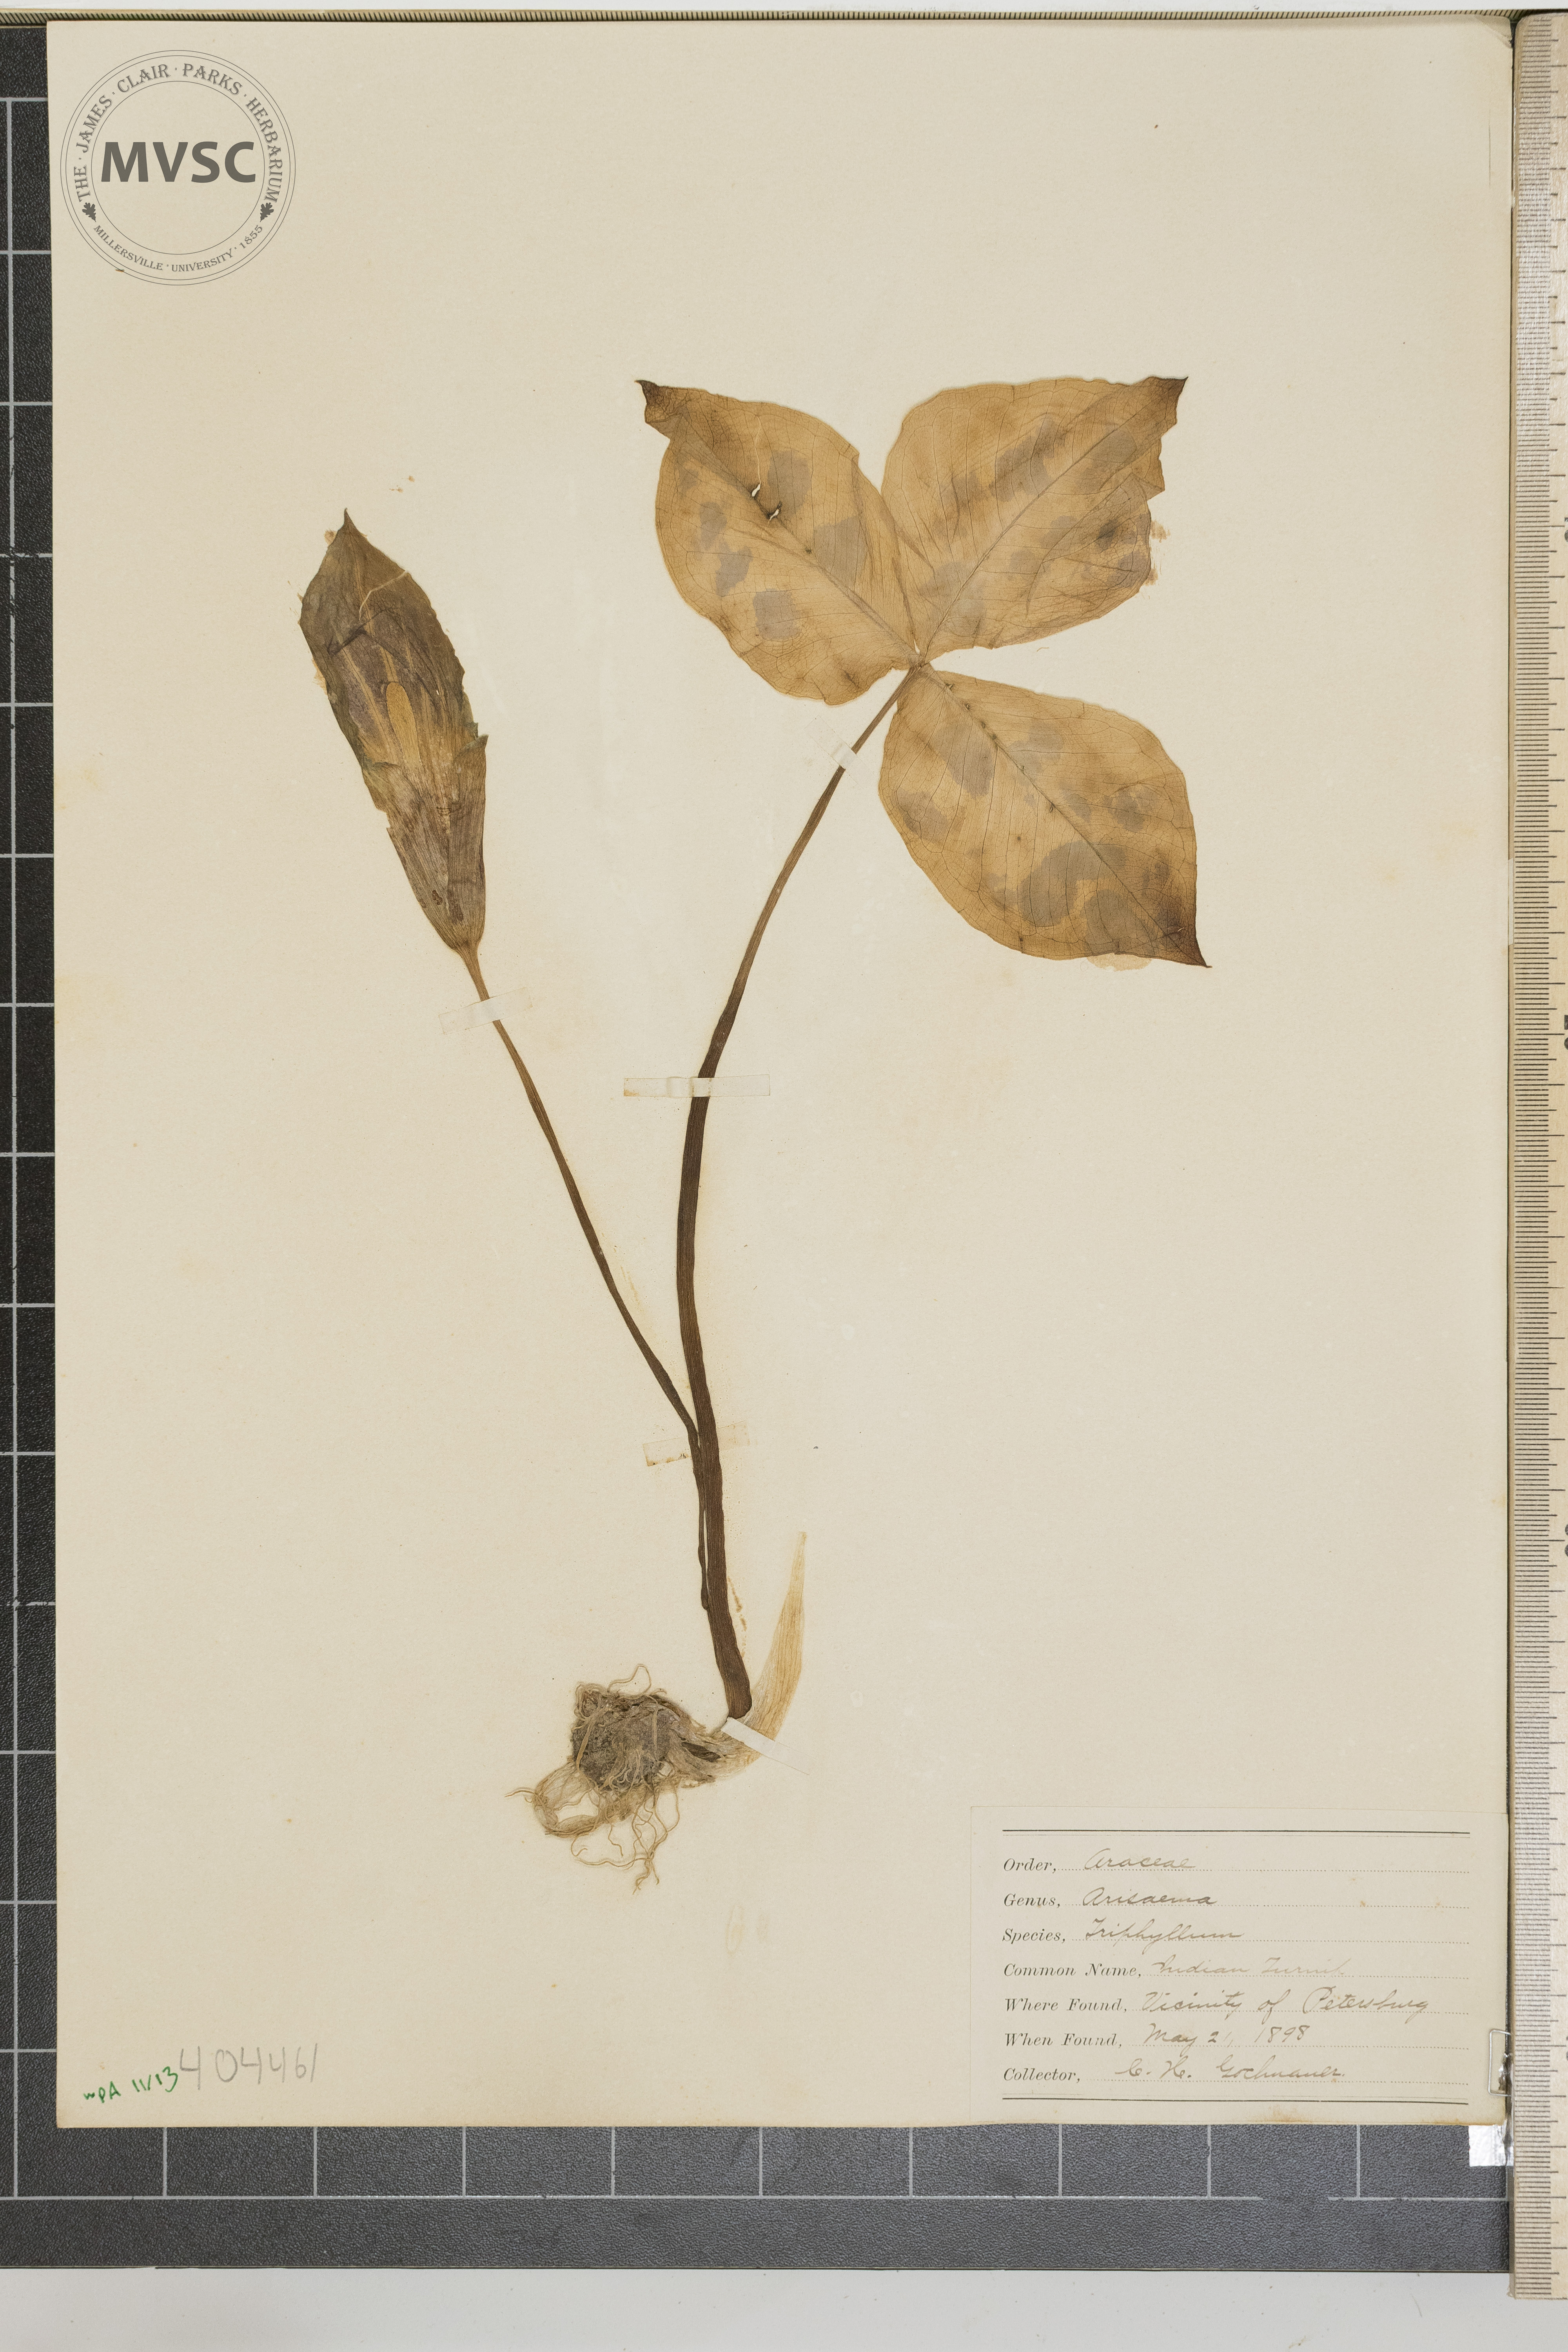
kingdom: Plantae
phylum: Tracheophyta
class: Liliopsida
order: Alismatales
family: Araceae
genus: Arisaema
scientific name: Arisaema triphyllum
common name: Jack-in-the-Pulpit
